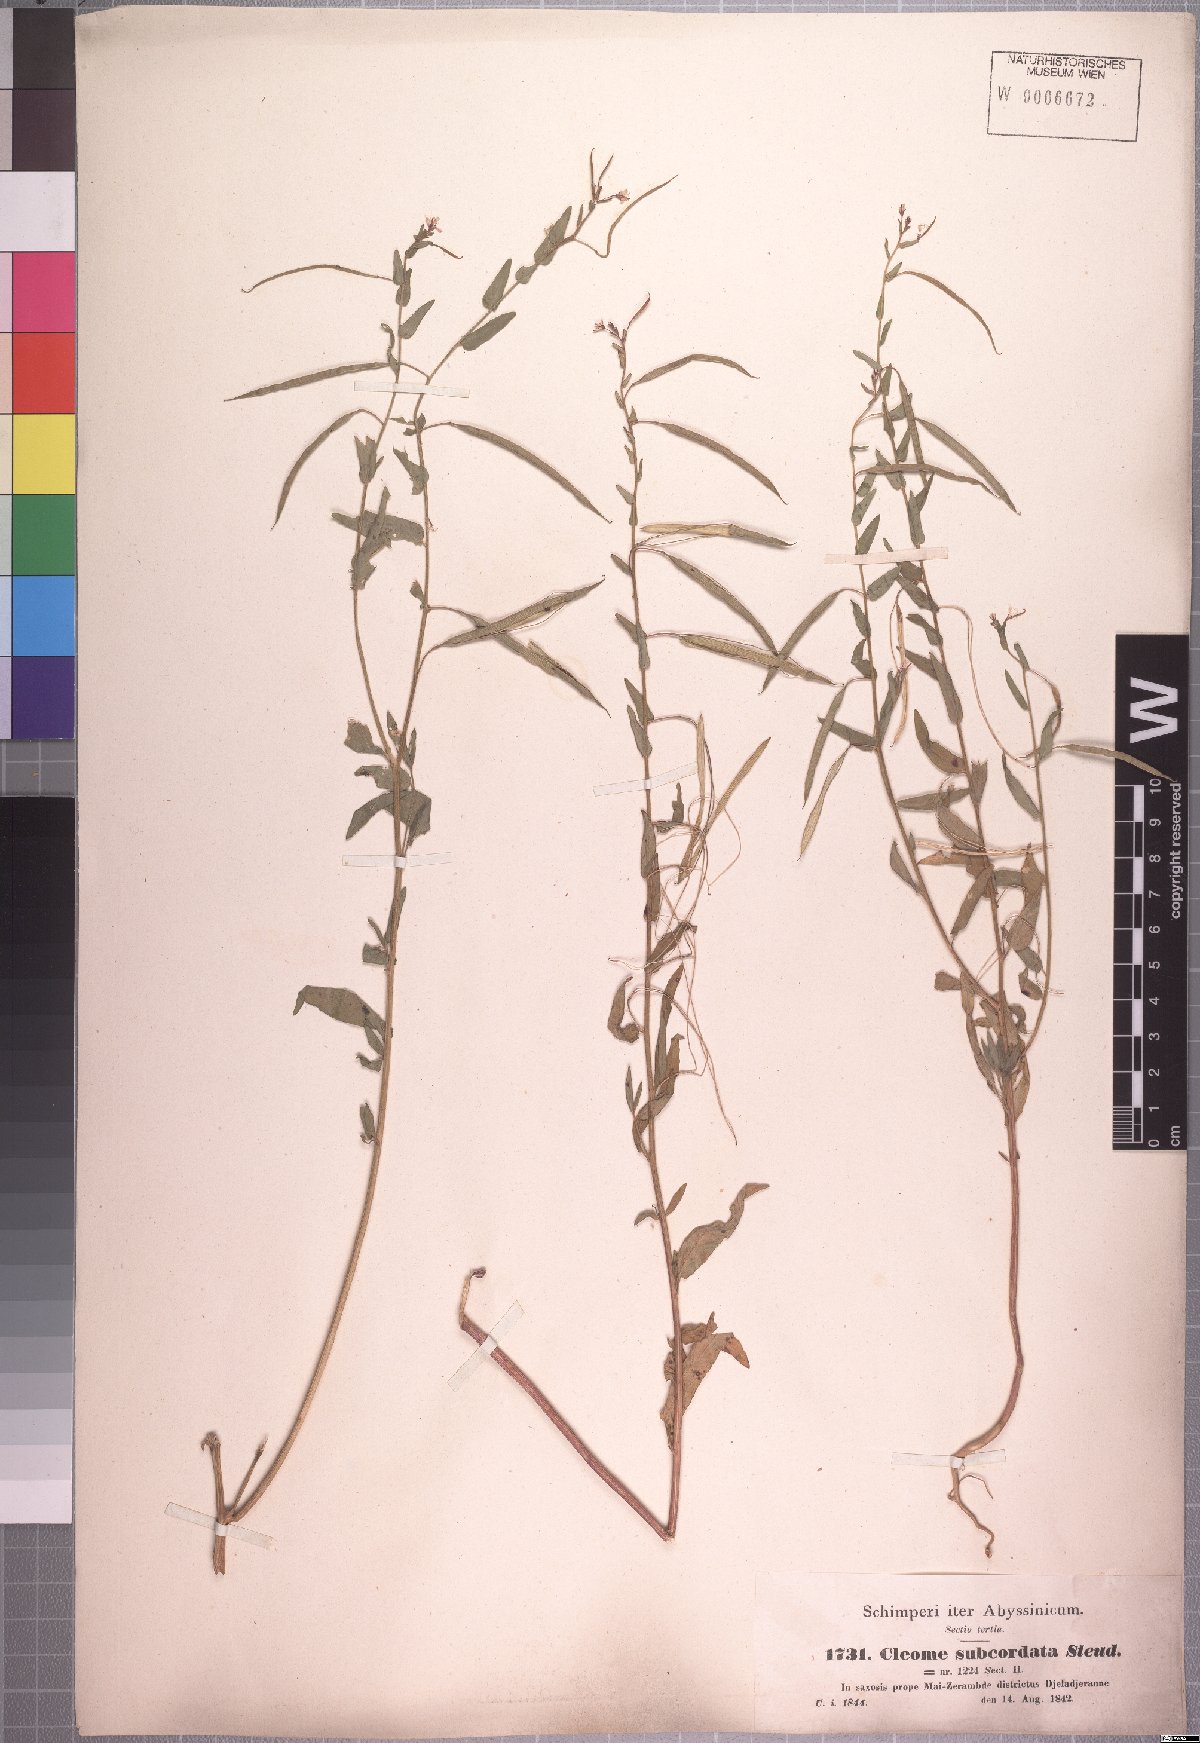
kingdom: Plantae
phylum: Tracheophyta
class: Magnoliopsida
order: Brassicales
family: Cleomaceae
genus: Sieruela
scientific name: Sieruela monophylla
